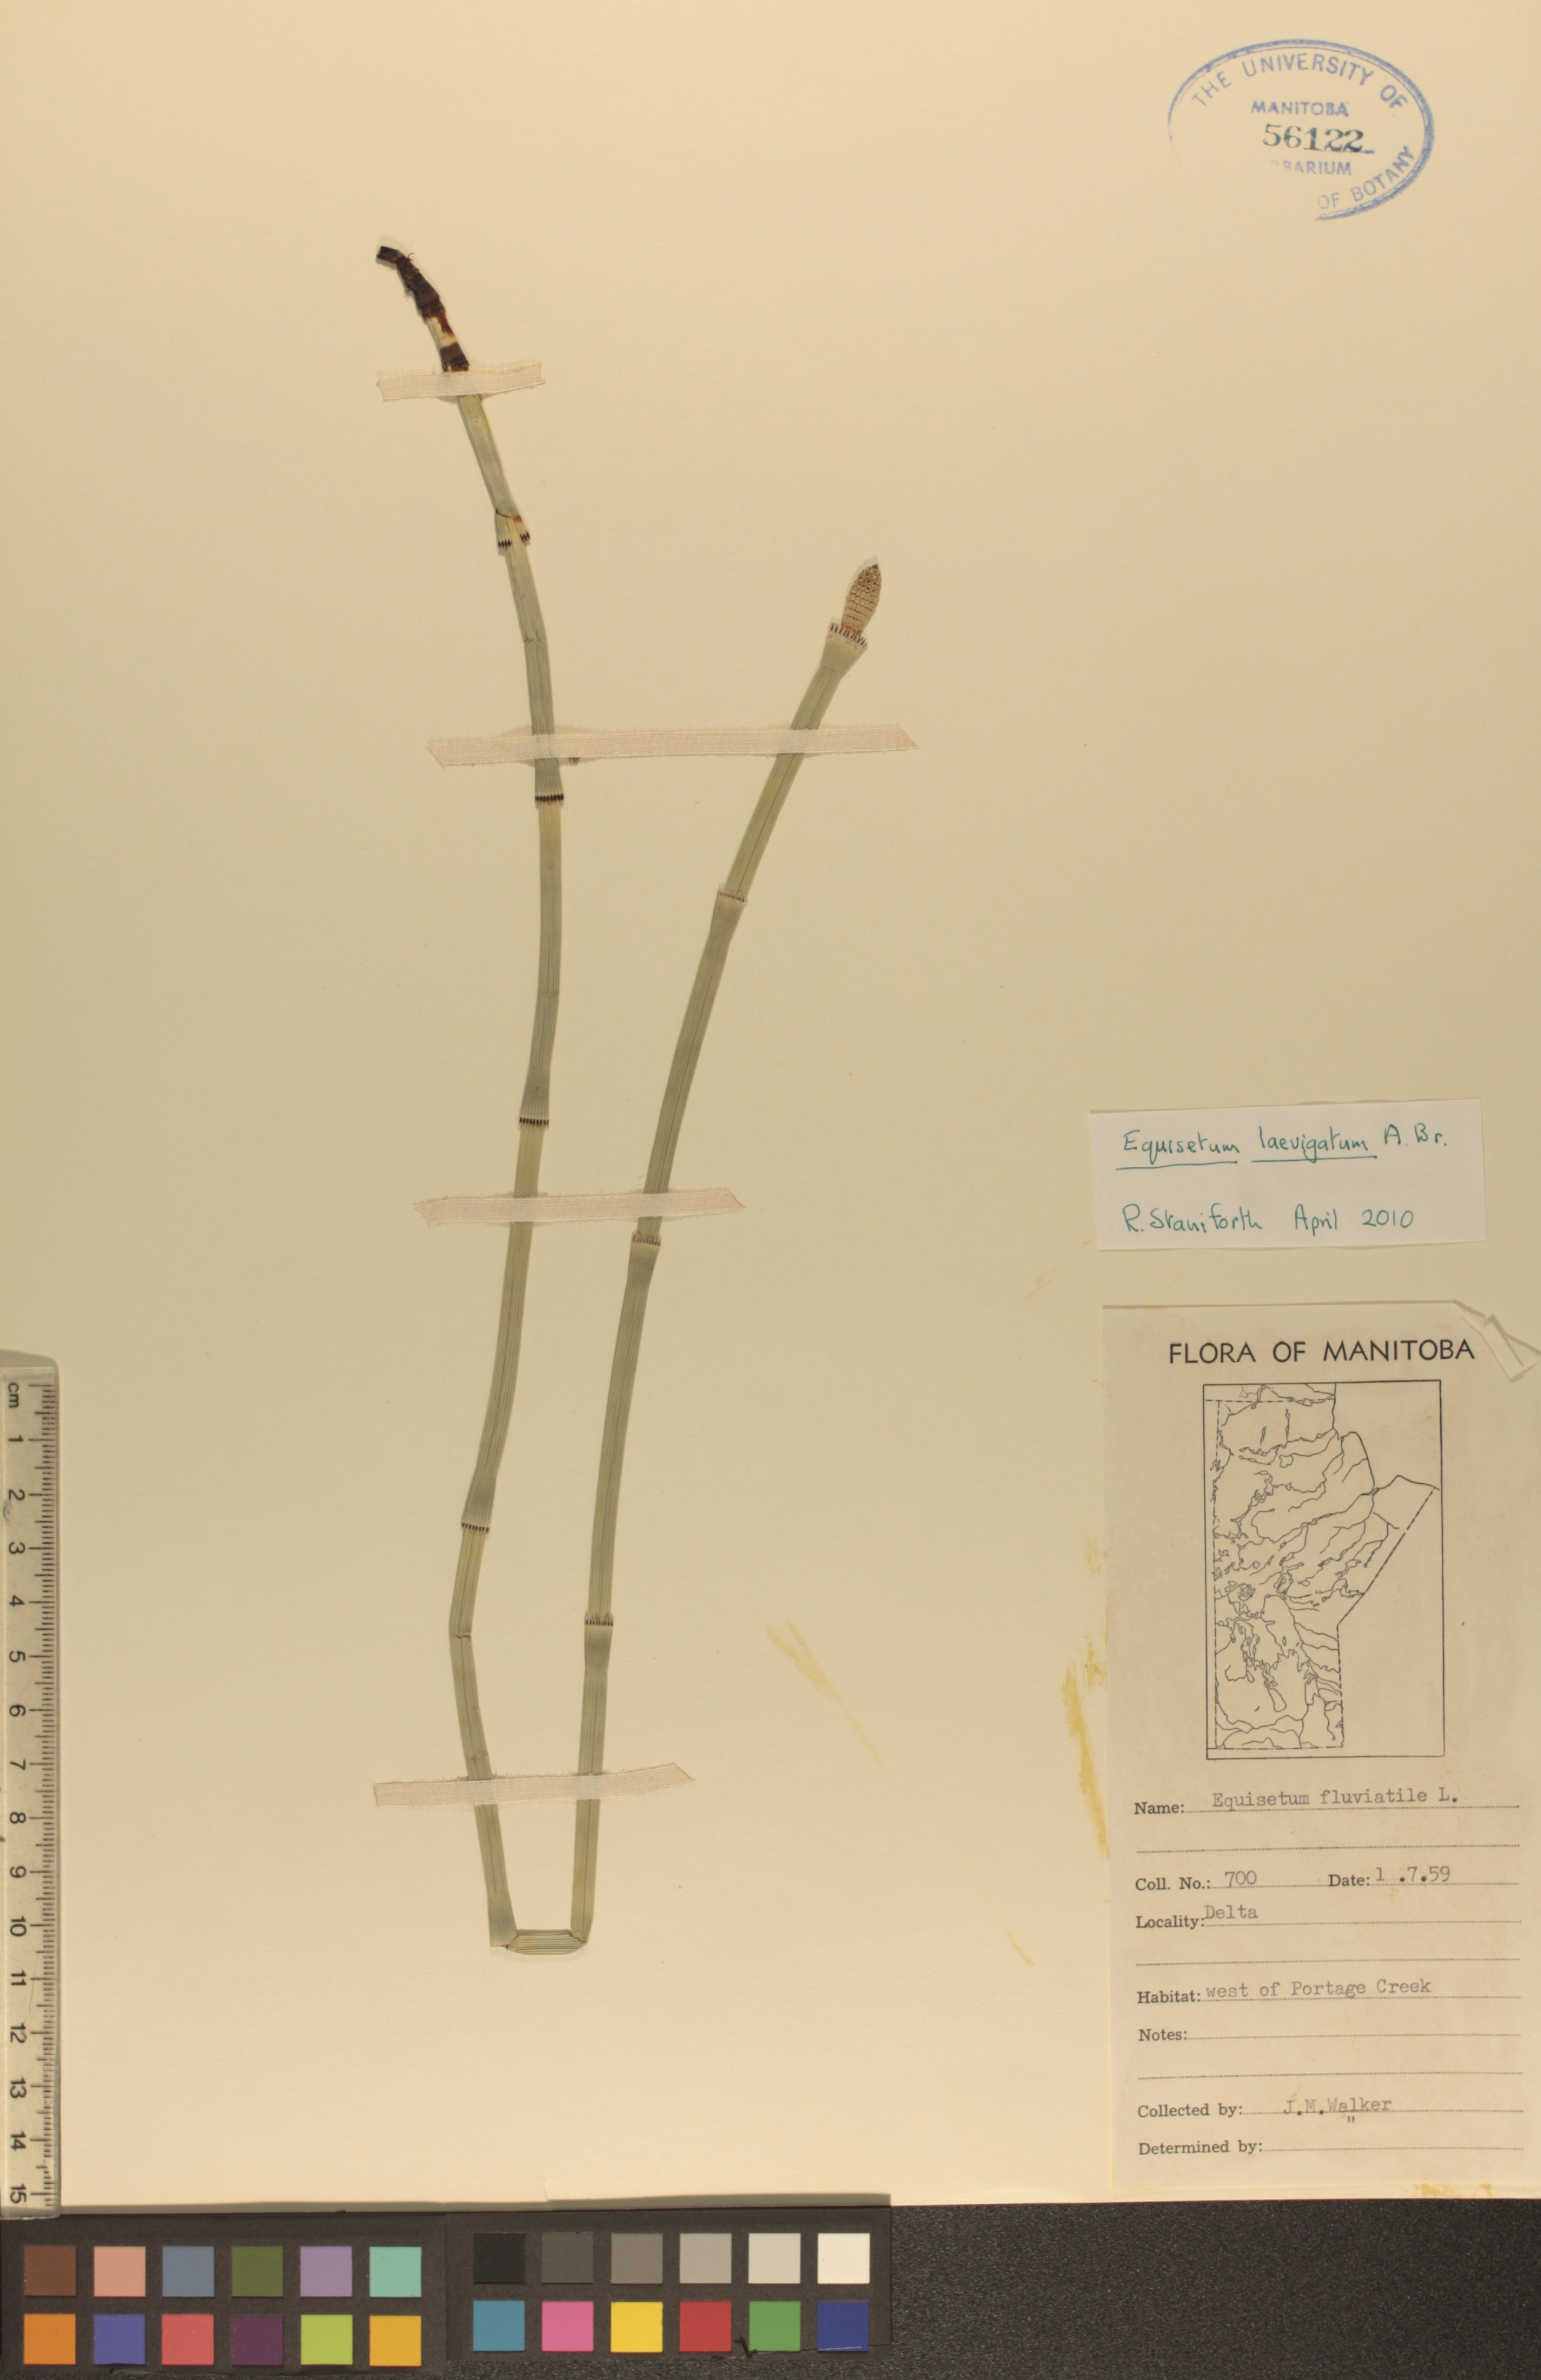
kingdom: Plantae
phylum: Tracheophyta
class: Polypodiopsida
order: Equisetales
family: Equisetaceae
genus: Equisetum
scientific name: Equisetum fluviatile
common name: Water horsetail
